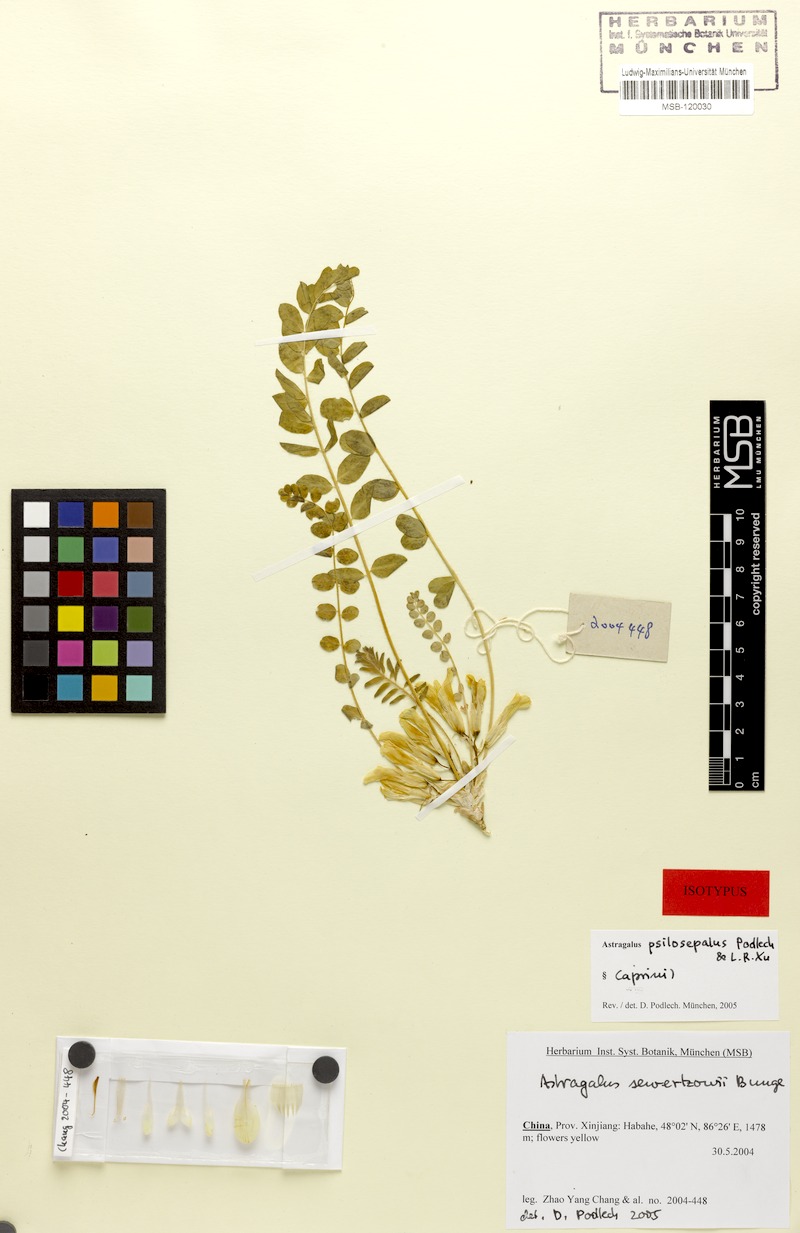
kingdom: Plantae
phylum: Tracheophyta
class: Magnoliopsida
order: Fabales
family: Fabaceae
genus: Astragalus
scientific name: Astragalus psilosepalus
